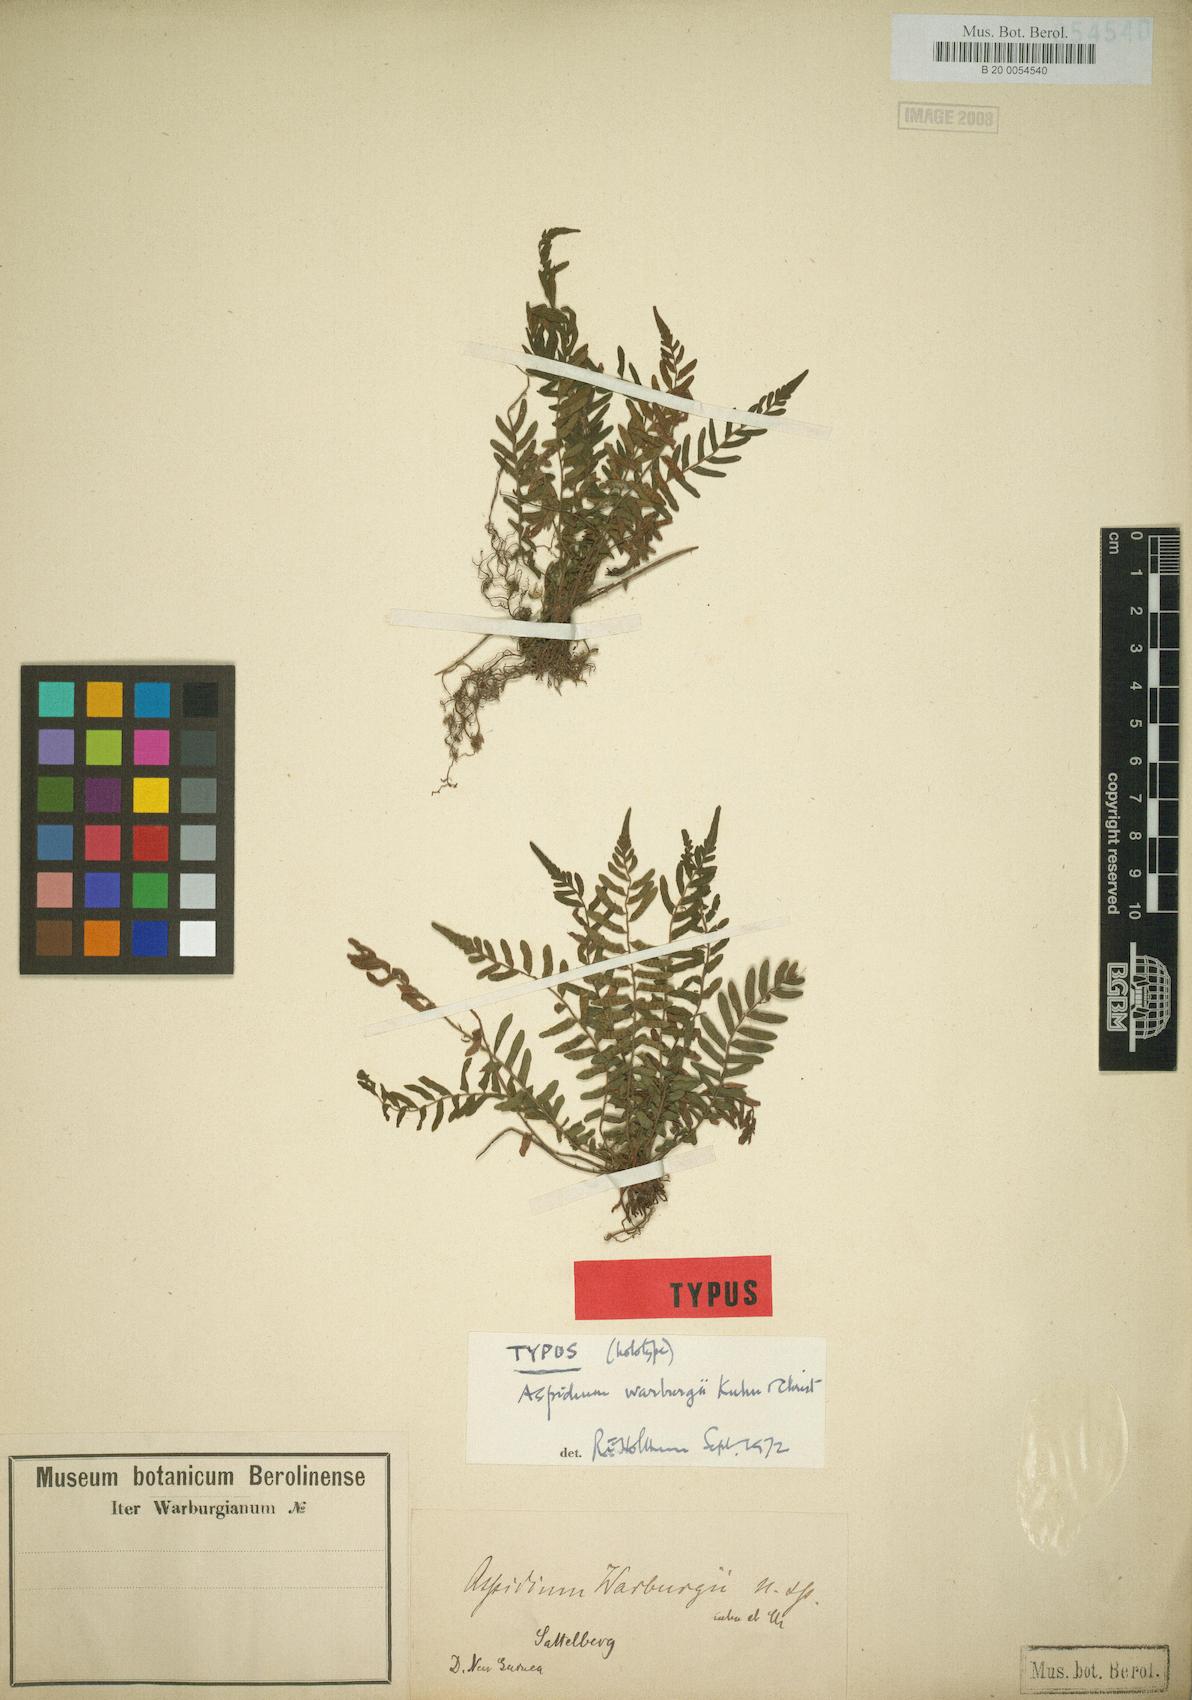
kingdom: Plantae
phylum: Tracheophyta
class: Polypodiopsida
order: Polypodiales
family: Thelypteridaceae
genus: Sphaerostephanos
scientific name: Sphaerostephanos debilis
